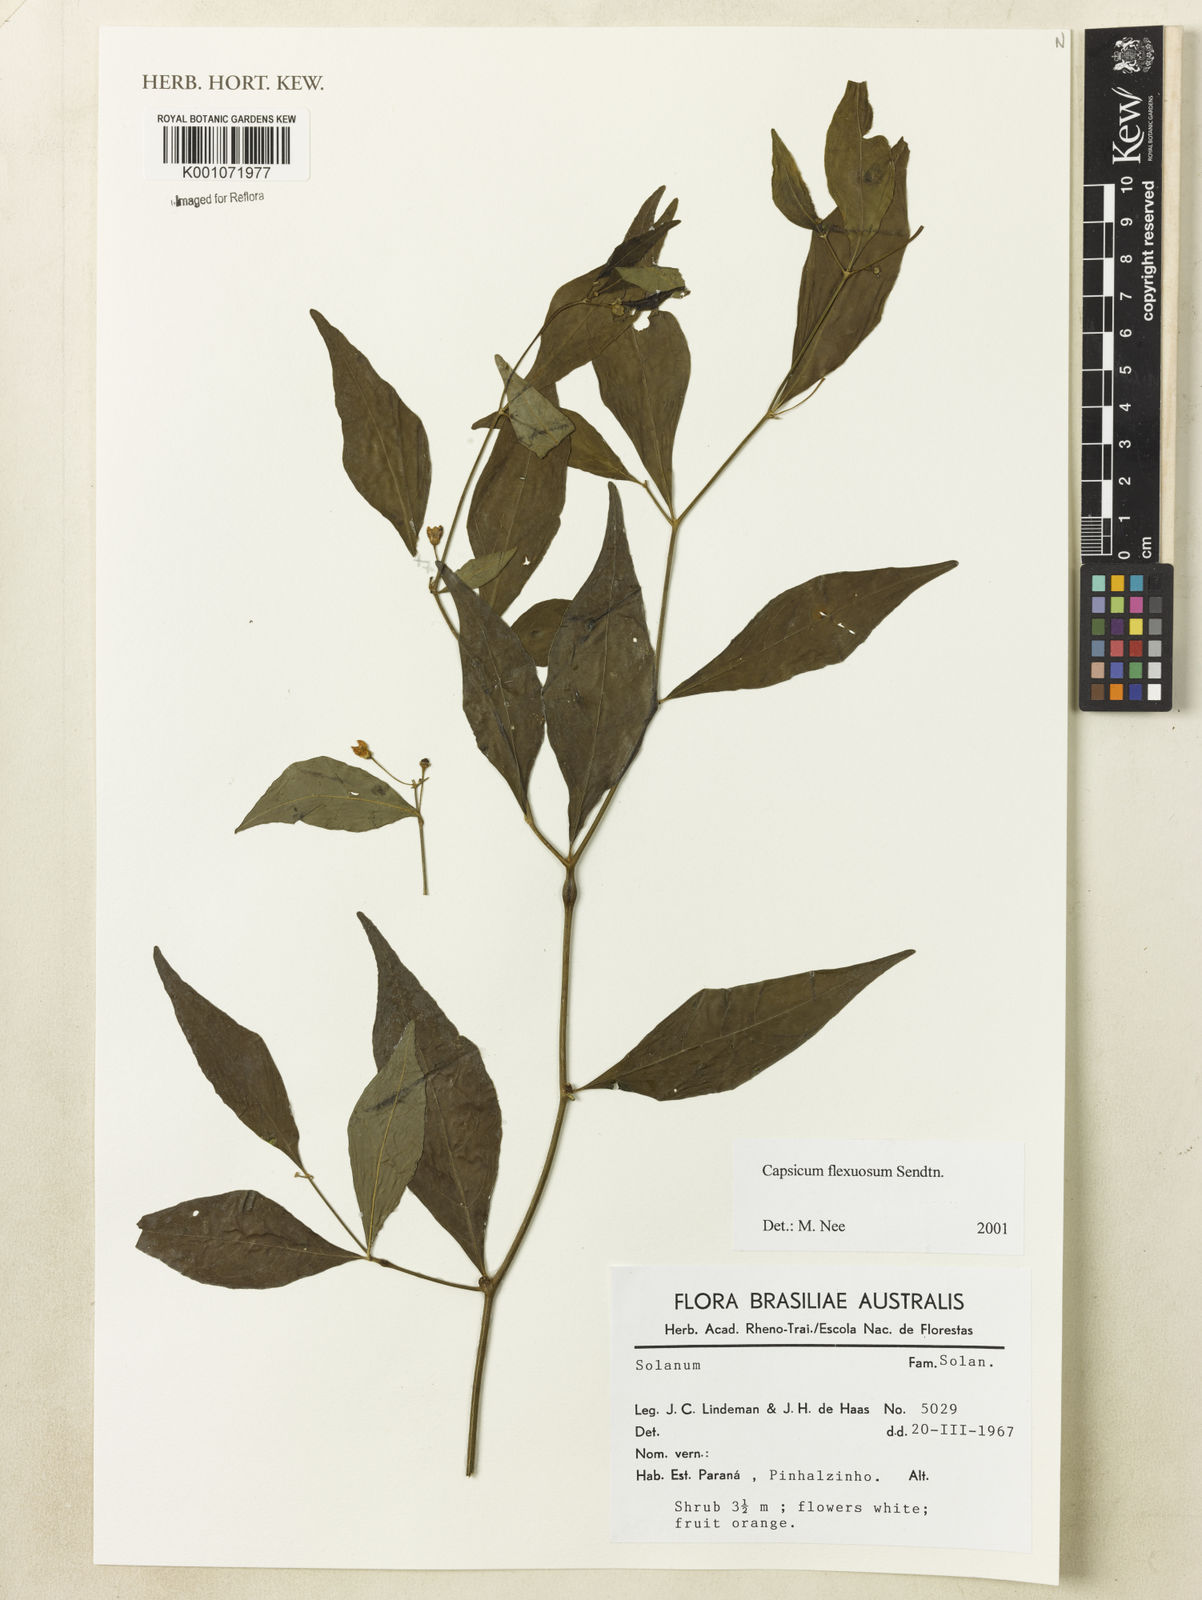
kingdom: Plantae
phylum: Tracheophyta
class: Magnoliopsida
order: Solanales
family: Solanaceae
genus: Withania
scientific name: Withania somnifera
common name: Winter-cherry
